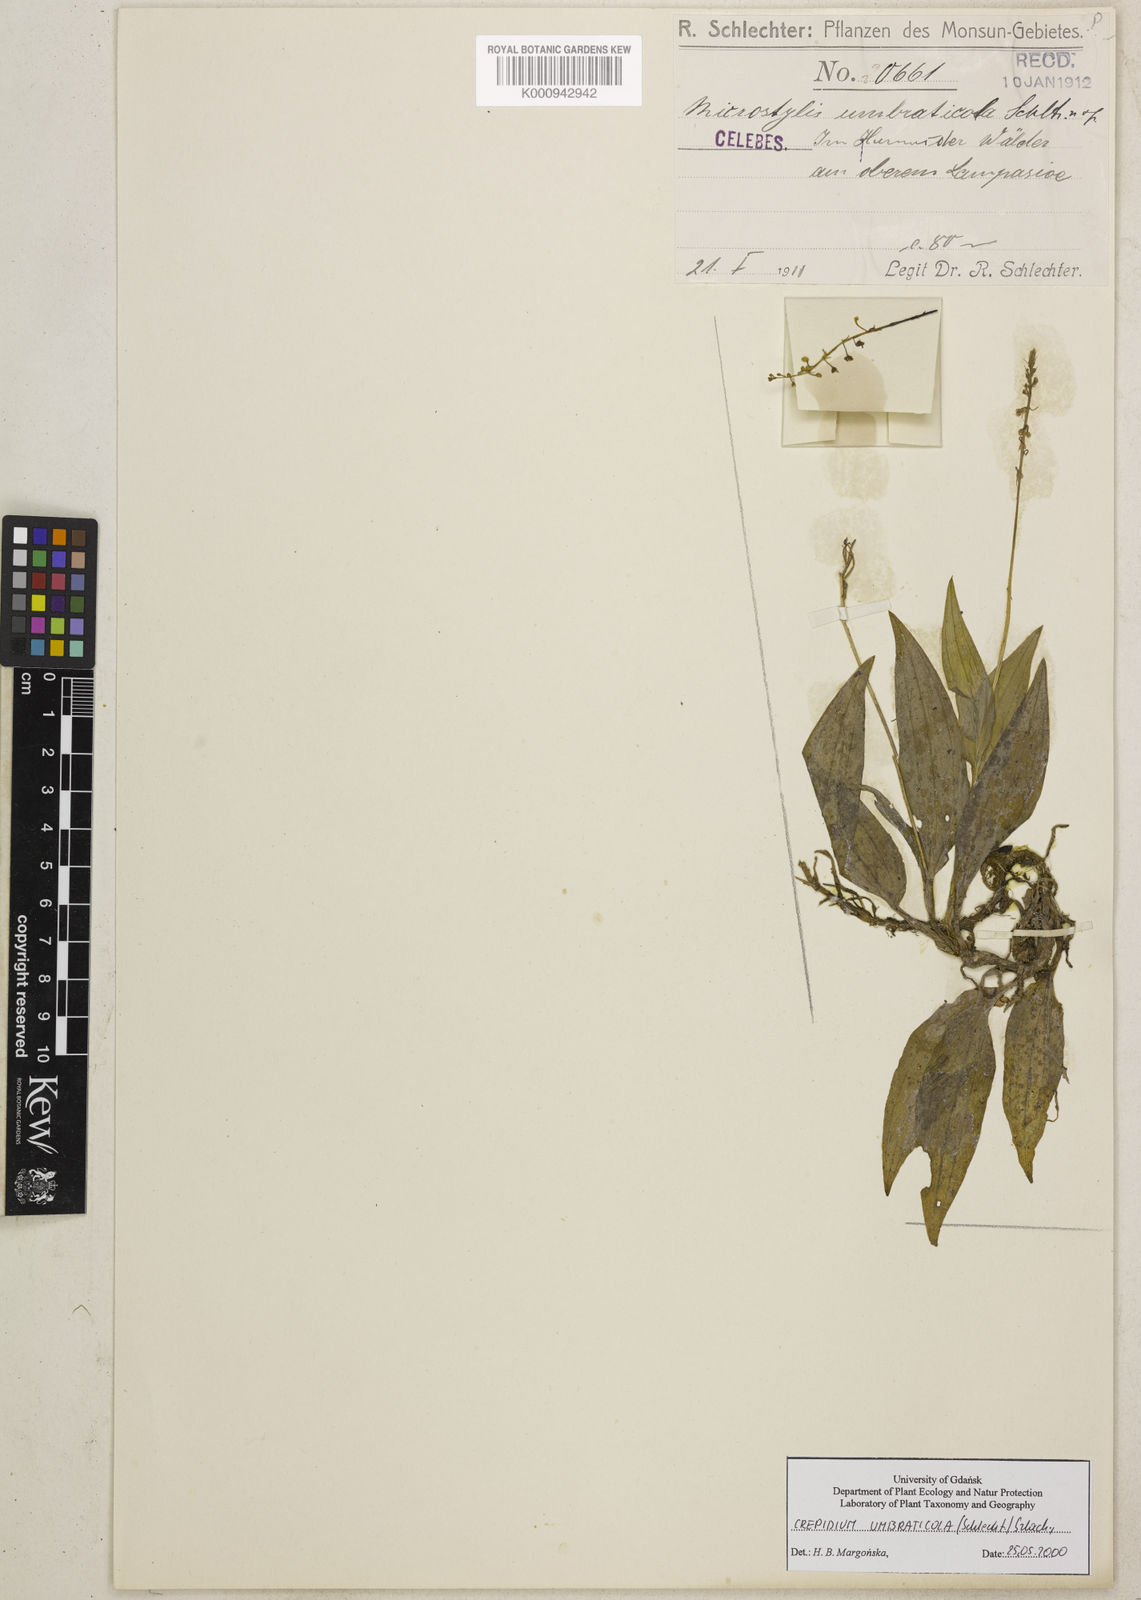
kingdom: Plantae
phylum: Tracheophyta
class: Liliopsida
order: Asparagales
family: Orchidaceae
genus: Crepidium
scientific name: Crepidium umbraticola
